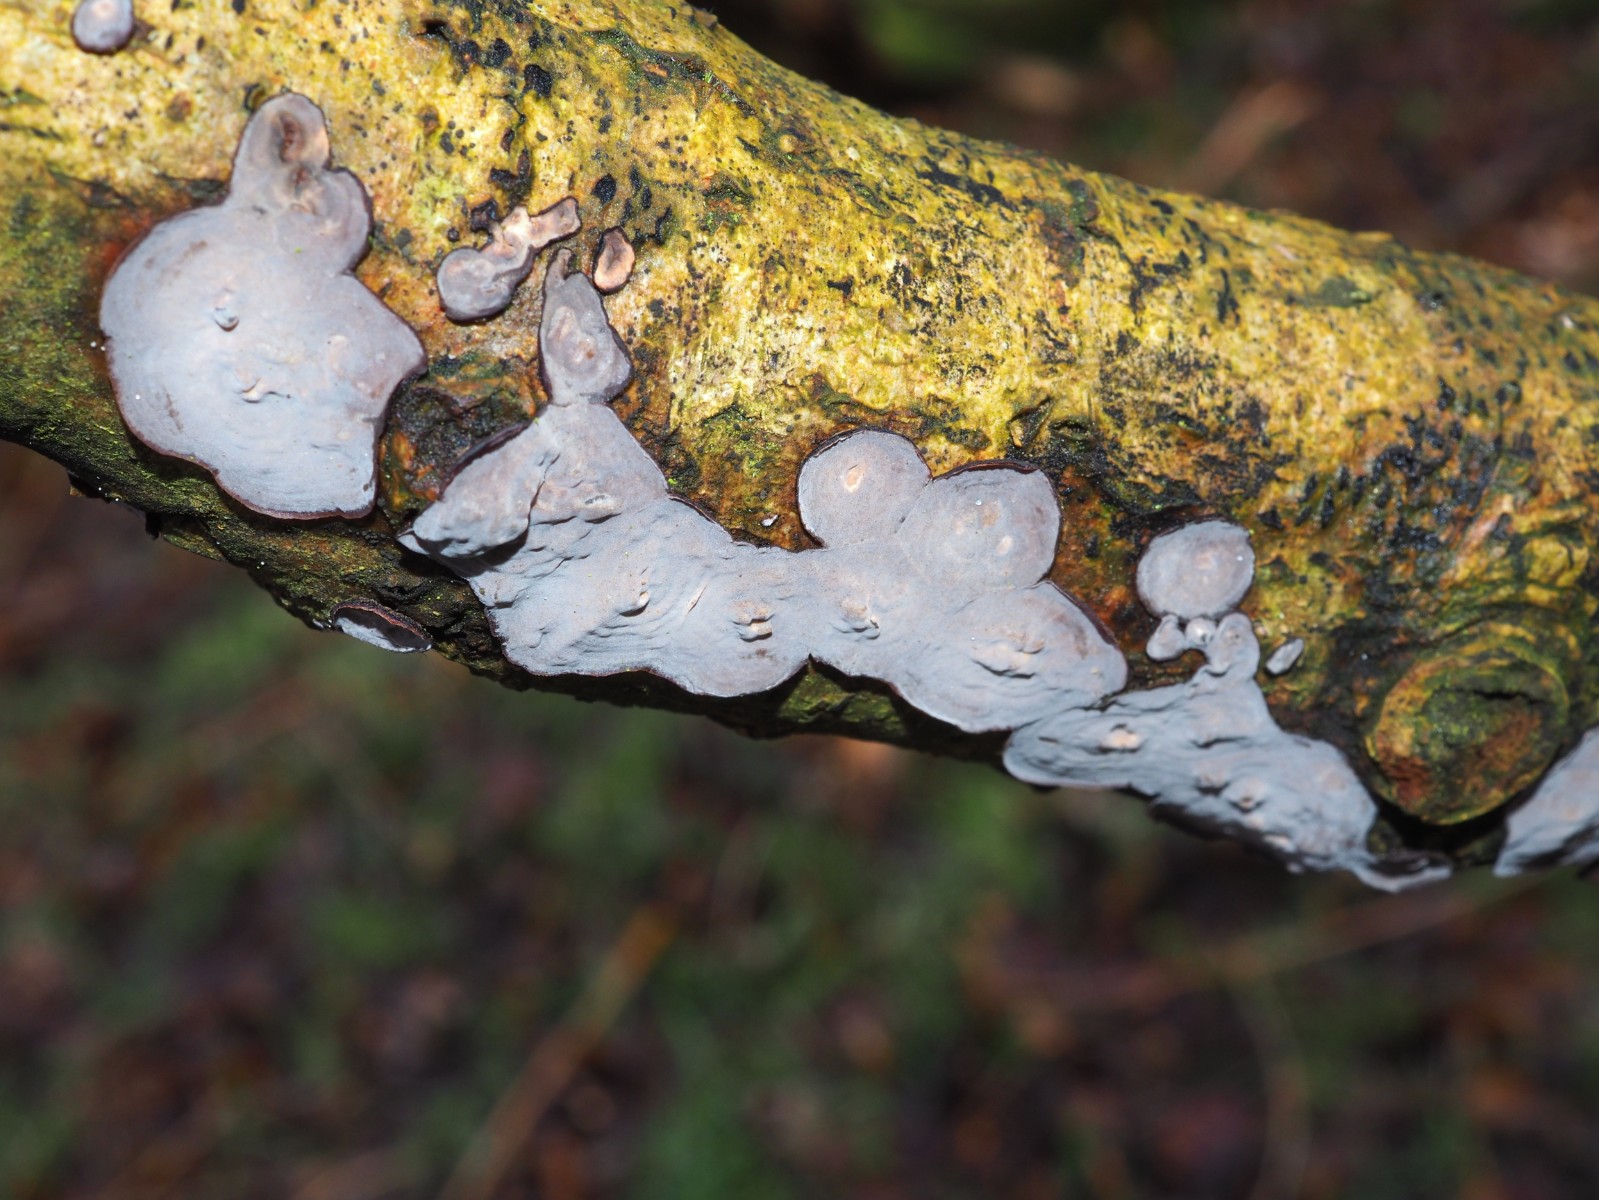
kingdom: Fungi
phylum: Basidiomycota
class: Agaricomycetes
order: Russulales
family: Peniophoraceae
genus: Peniophora
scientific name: Peniophora quercina
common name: ege-voksskind
